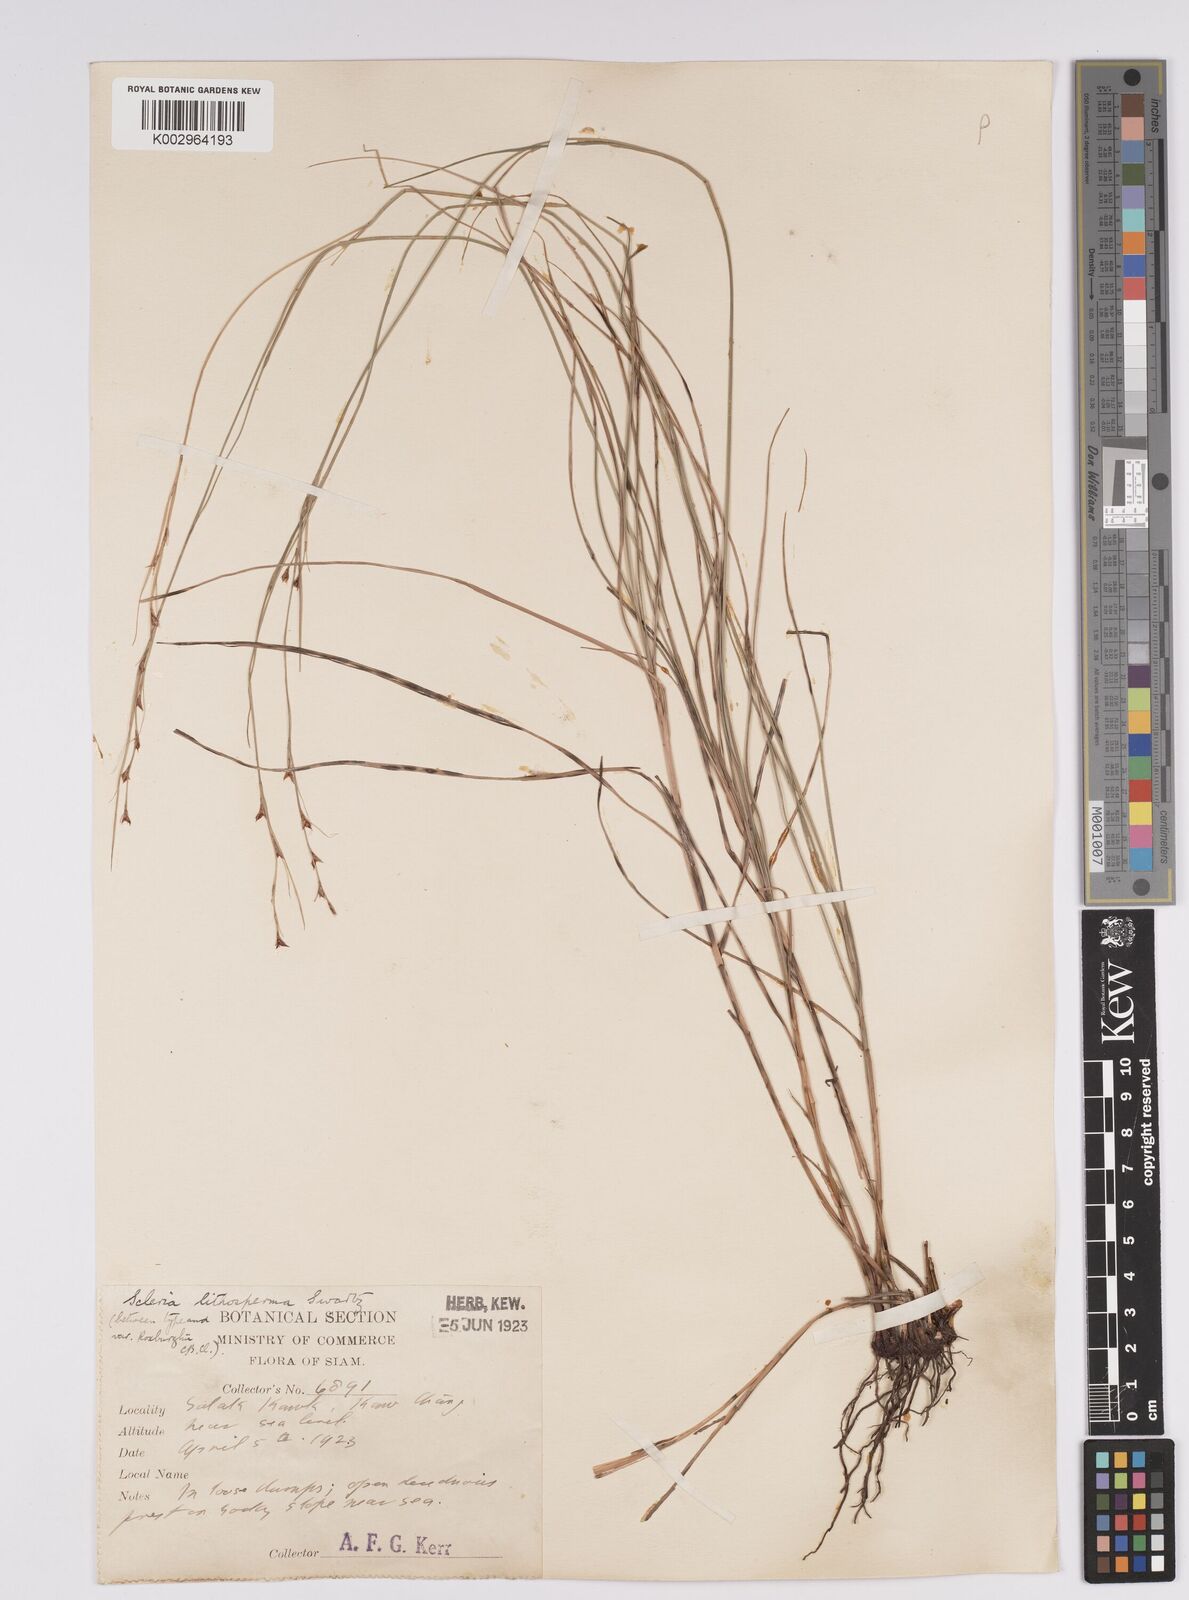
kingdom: Plantae
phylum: Tracheophyta
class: Liliopsida
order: Poales
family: Cyperaceae
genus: Scleria
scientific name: Scleria lithosperma
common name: Florida keys nut-rush
